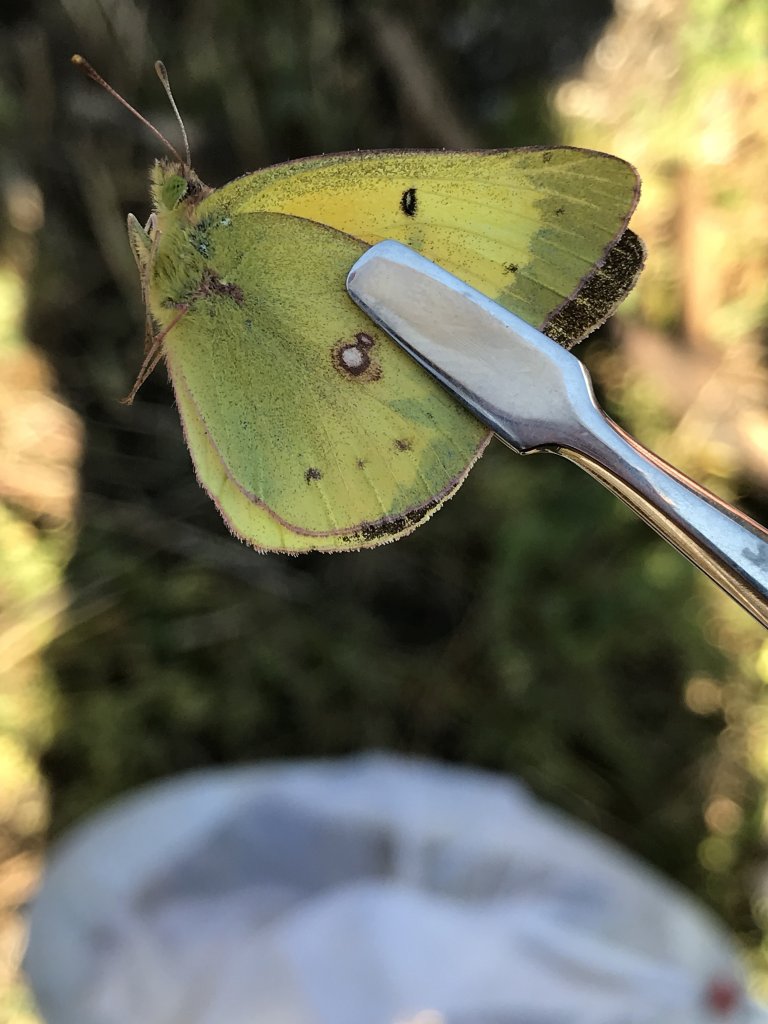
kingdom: Animalia
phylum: Arthropoda
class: Insecta
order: Lepidoptera
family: Pieridae
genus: Colias
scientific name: Colias eurytheme
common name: Orange Sulphur
